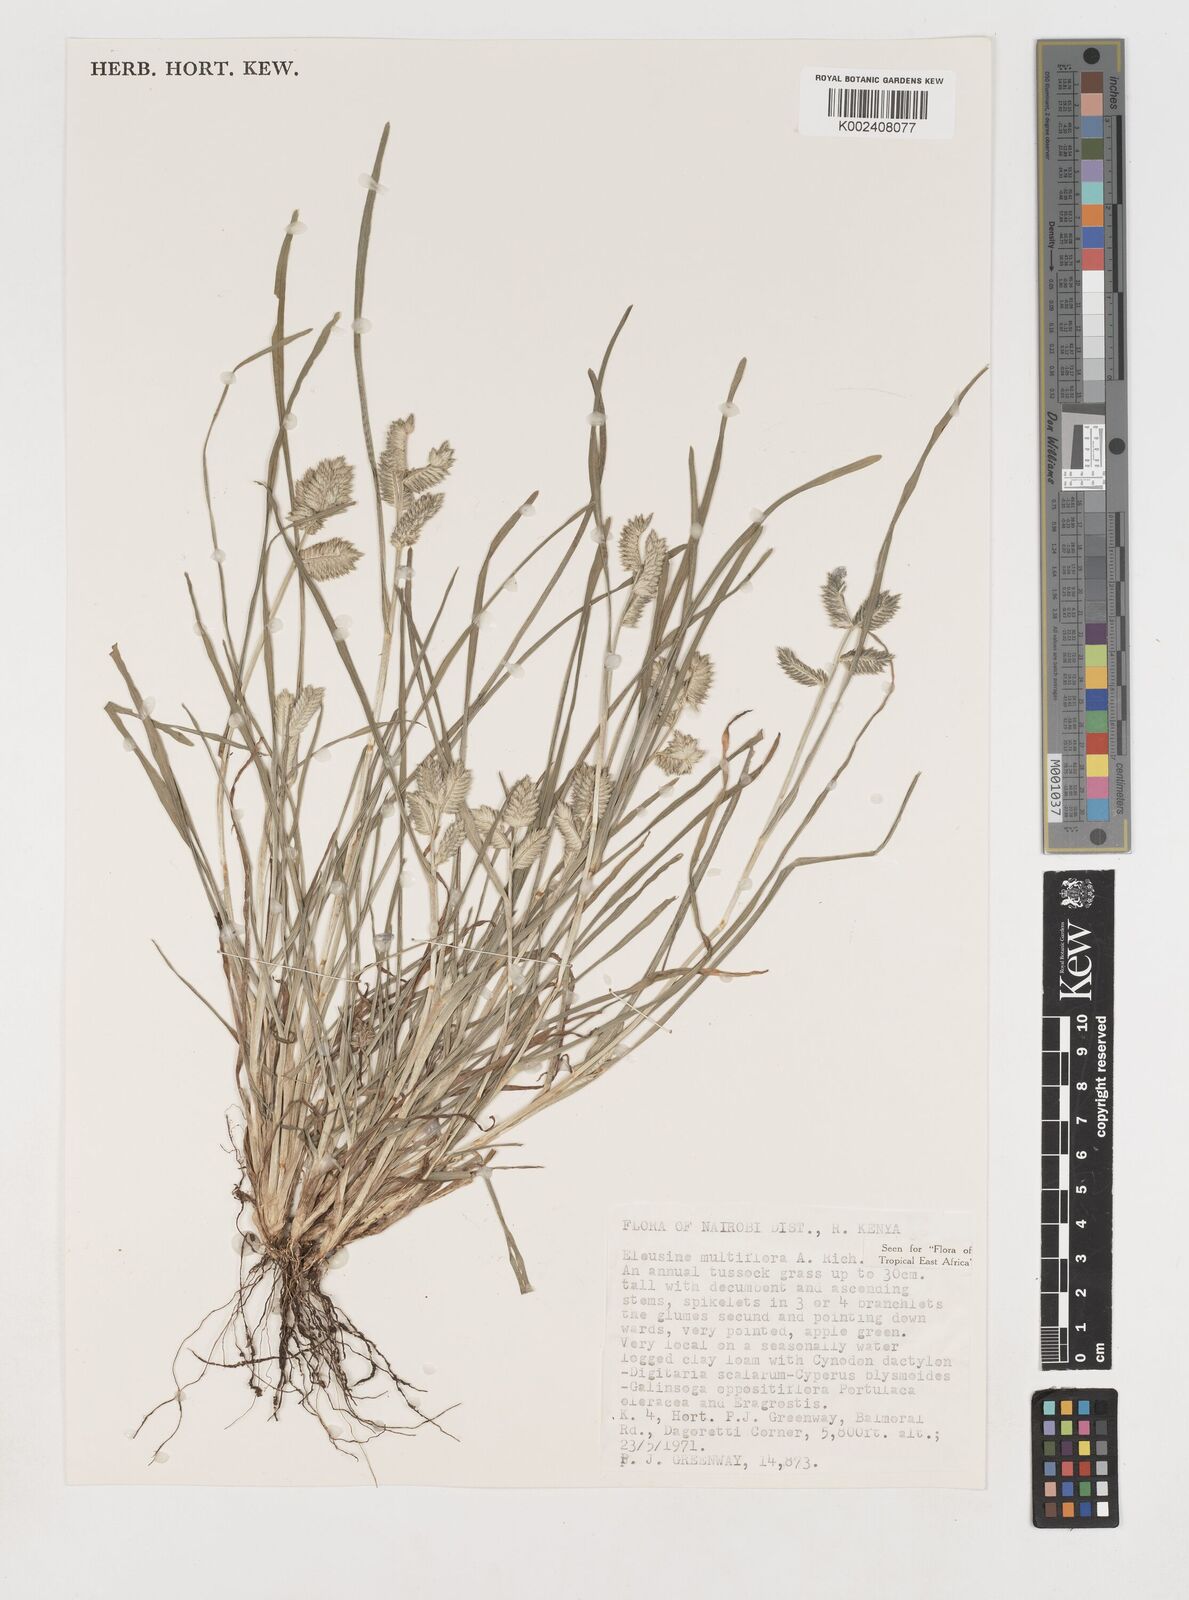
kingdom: Plantae
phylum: Tracheophyta
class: Liliopsida
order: Poales
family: Poaceae
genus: Eleusine
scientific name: Eleusine multiflora
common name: Fat-spiked yard-grass
